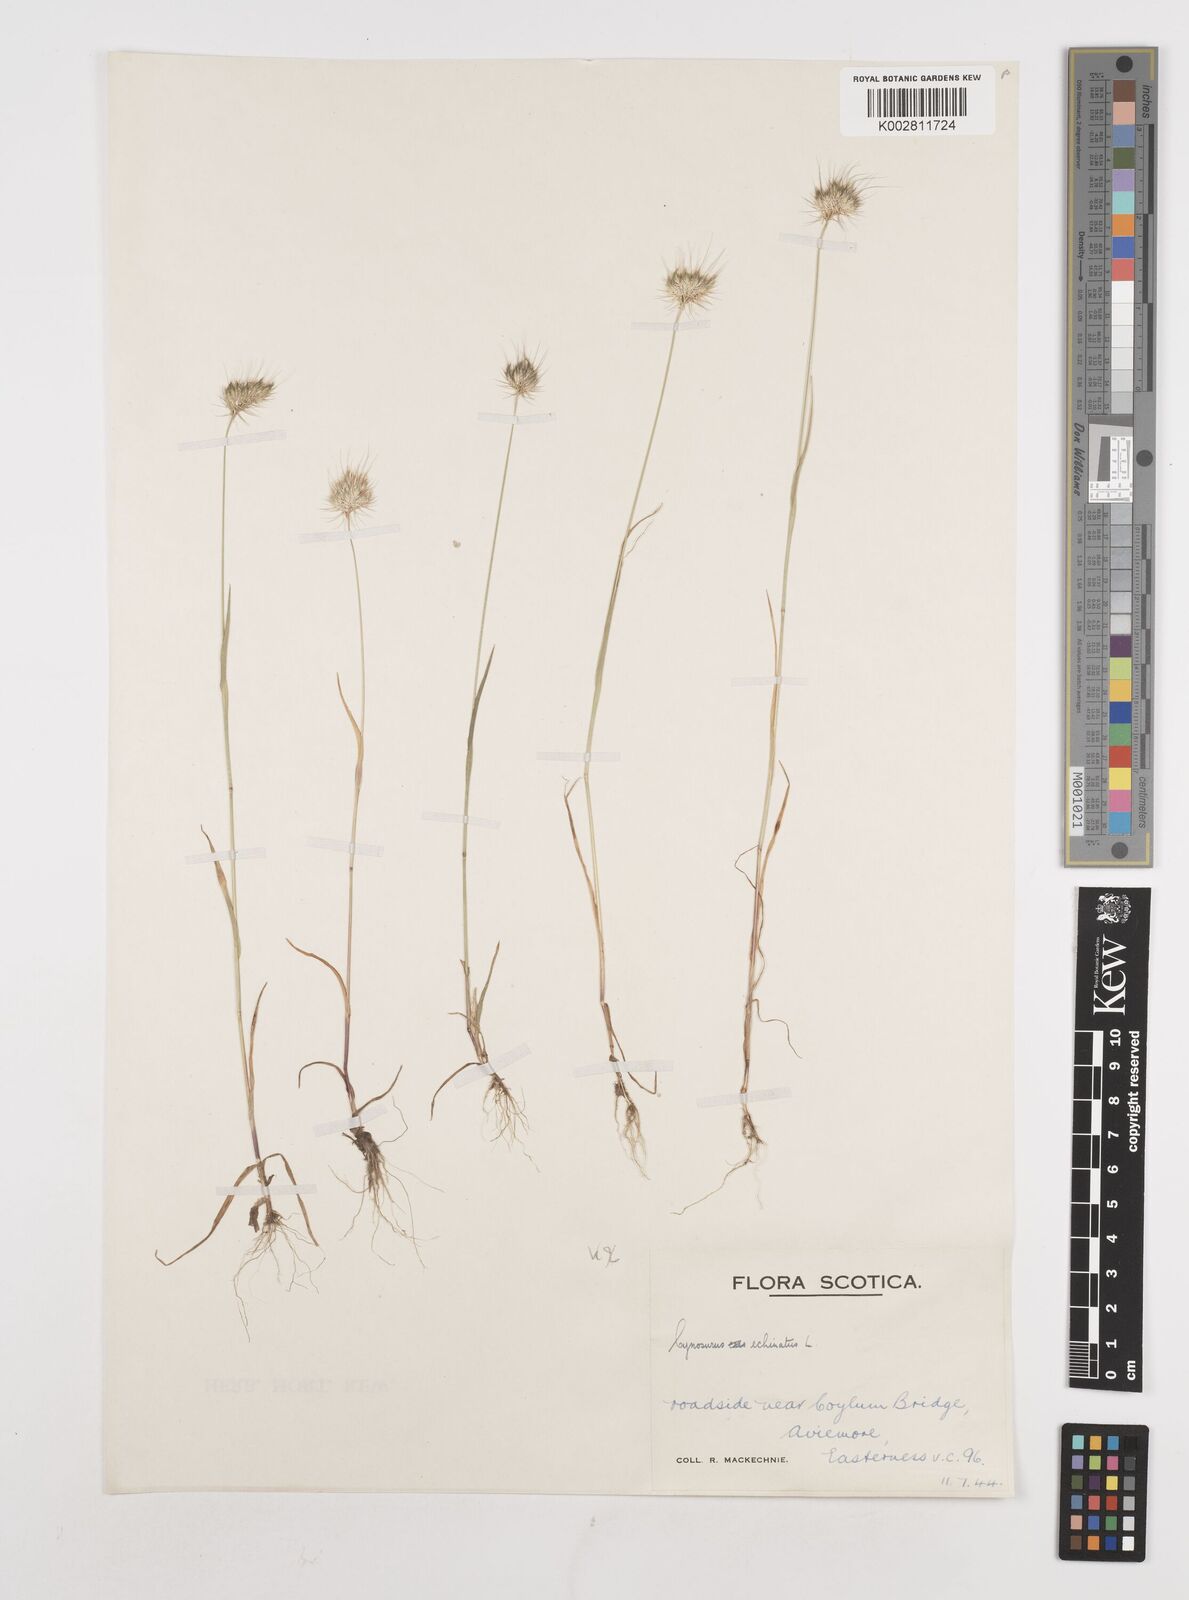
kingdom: Plantae
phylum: Tracheophyta
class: Liliopsida
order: Poales
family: Poaceae
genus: Cynosurus
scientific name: Cynosurus echinatus
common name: Rough dog's-tail
